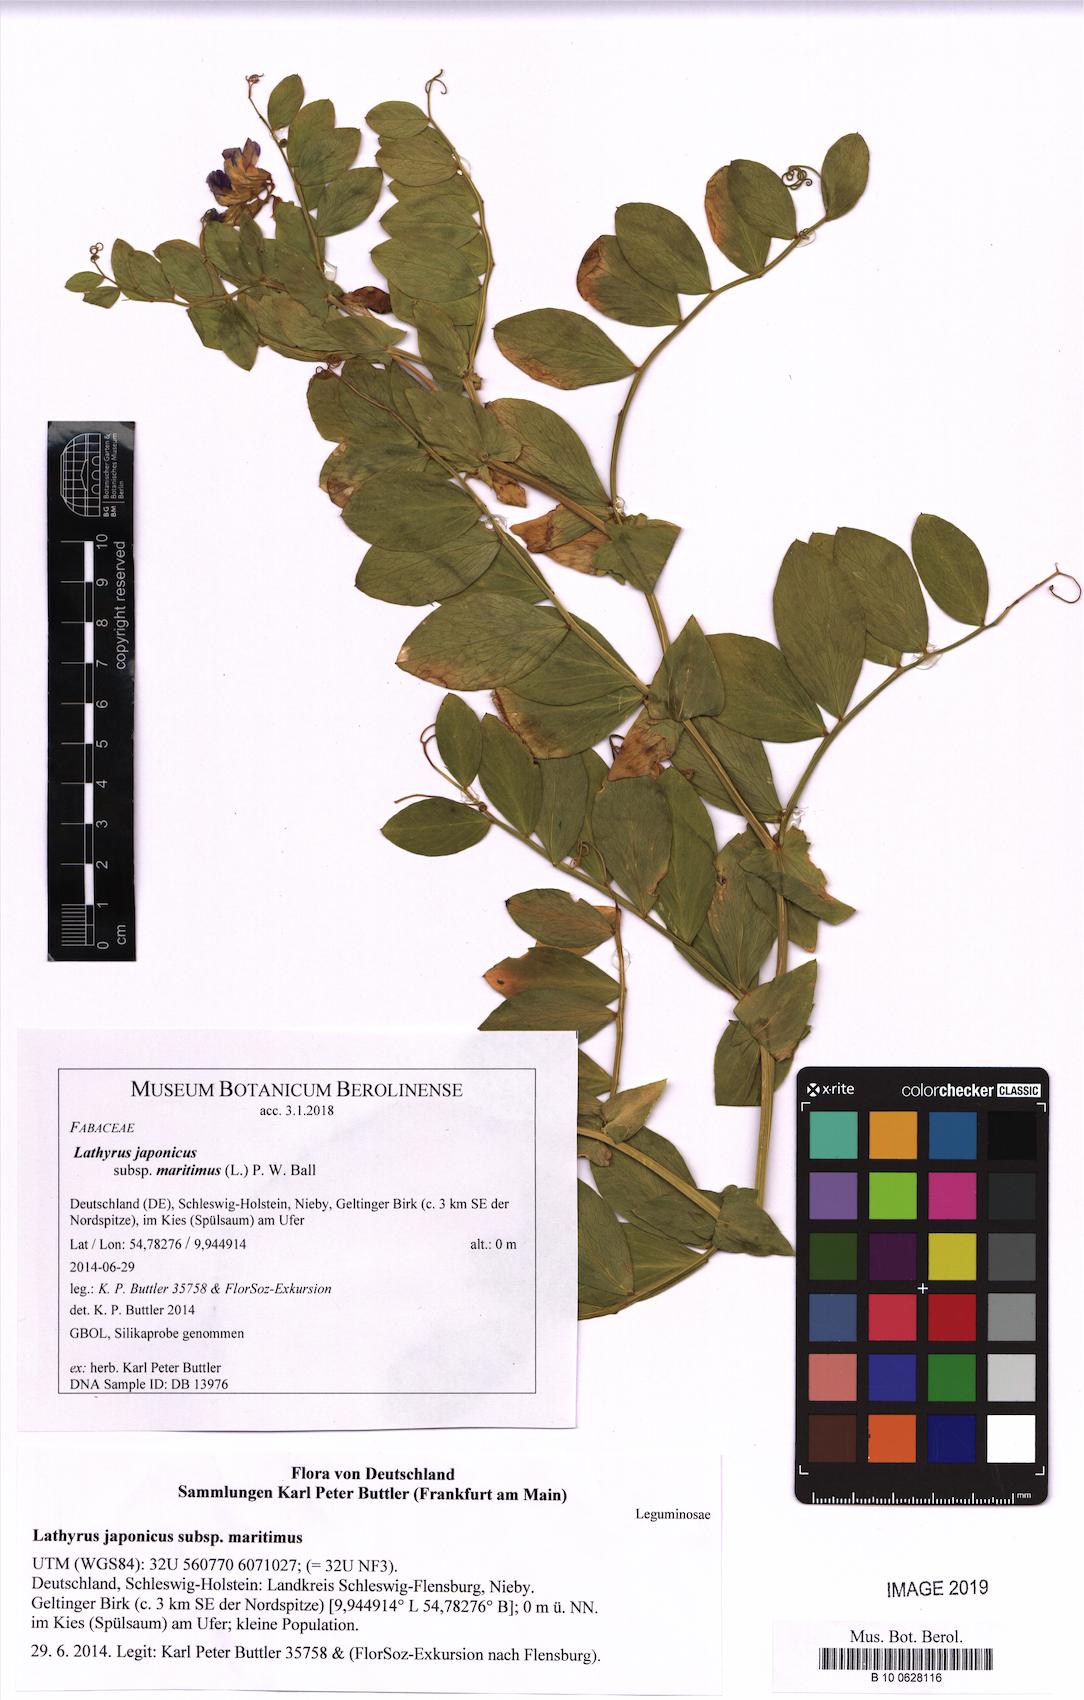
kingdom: Plantae
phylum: Tracheophyta
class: Magnoliopsida
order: Fabales
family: Fabaceae
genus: Lathyrus
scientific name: Lathyrus japonicus
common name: Sea pea
